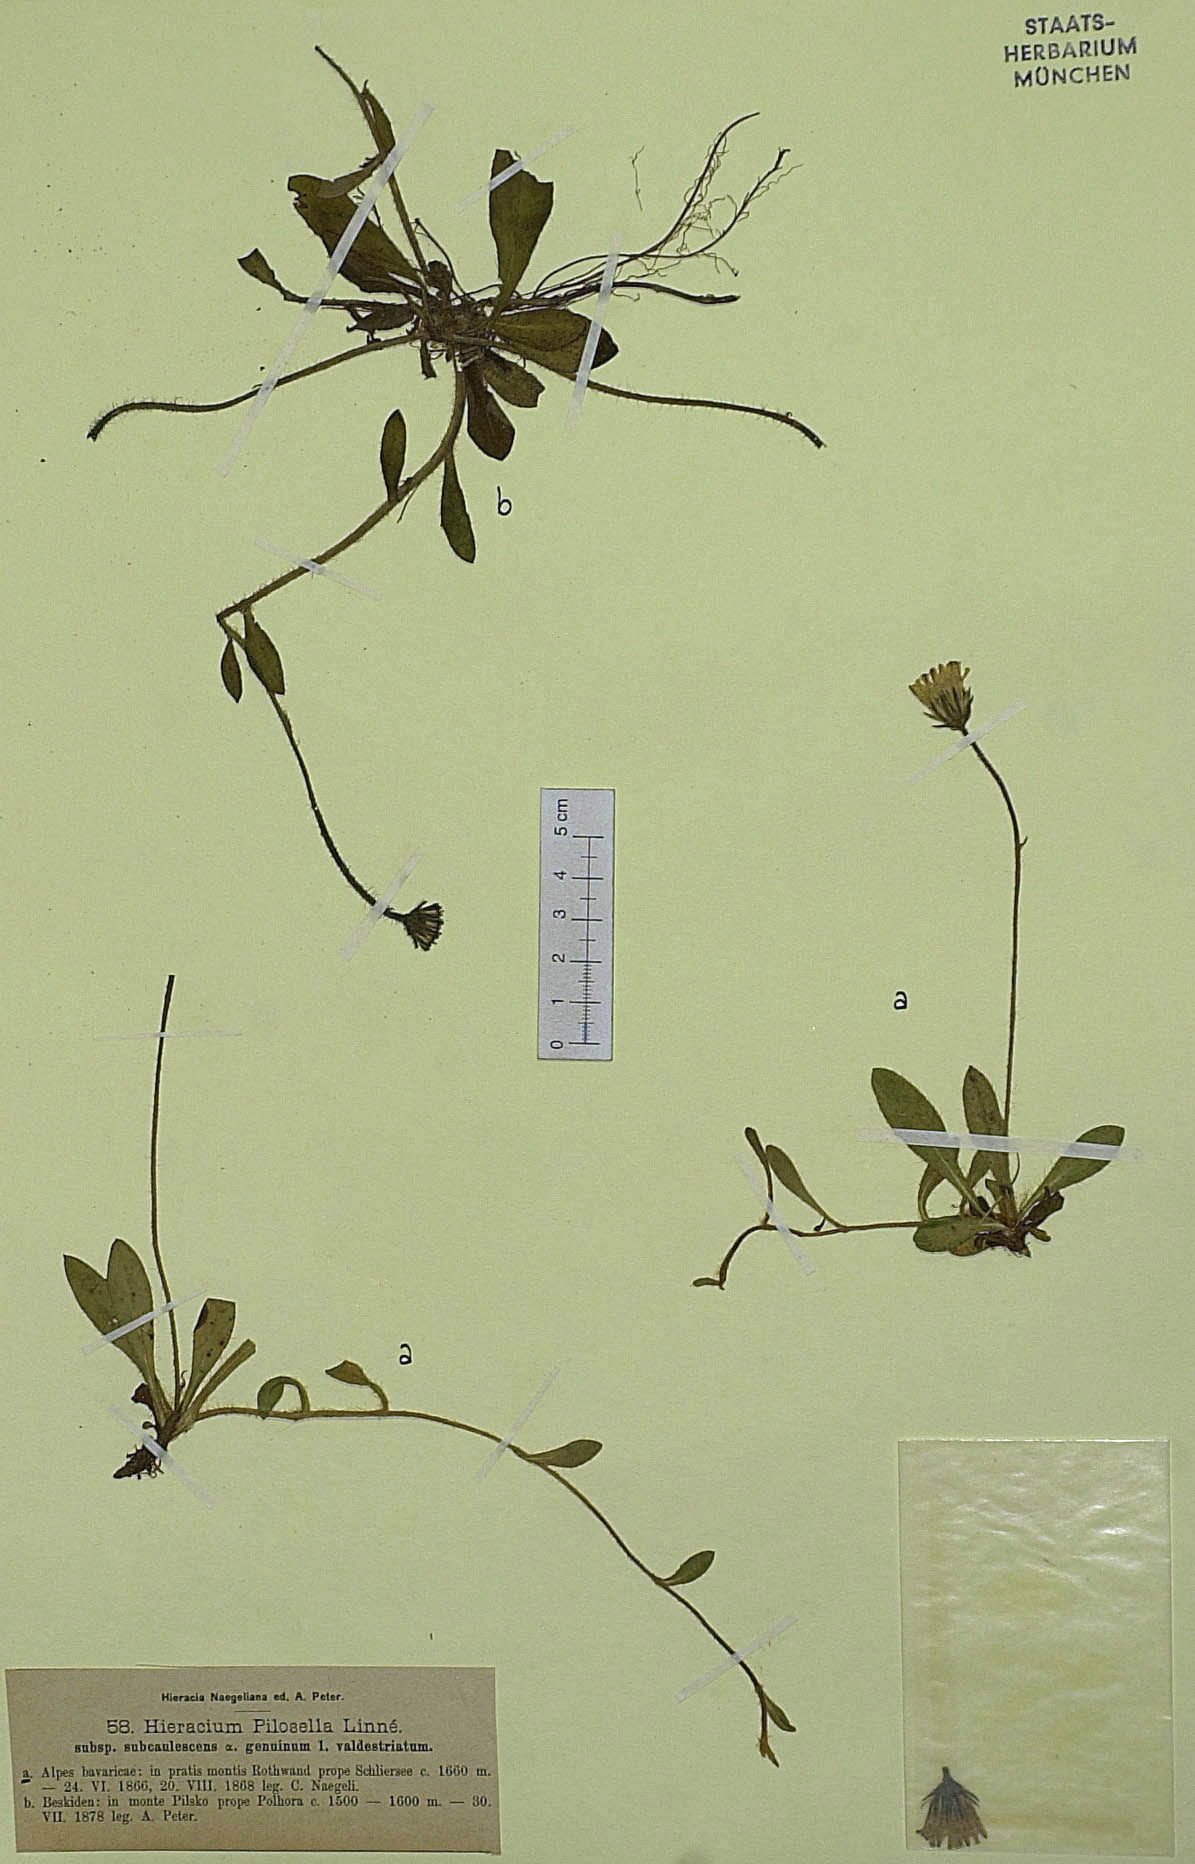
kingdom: Plantae
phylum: Tracheophyta
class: Magnoliopsida
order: Asterales
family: Asteraceae
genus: Pilosella
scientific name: Pilosella officinarum
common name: Mouse-ear hawkweed
